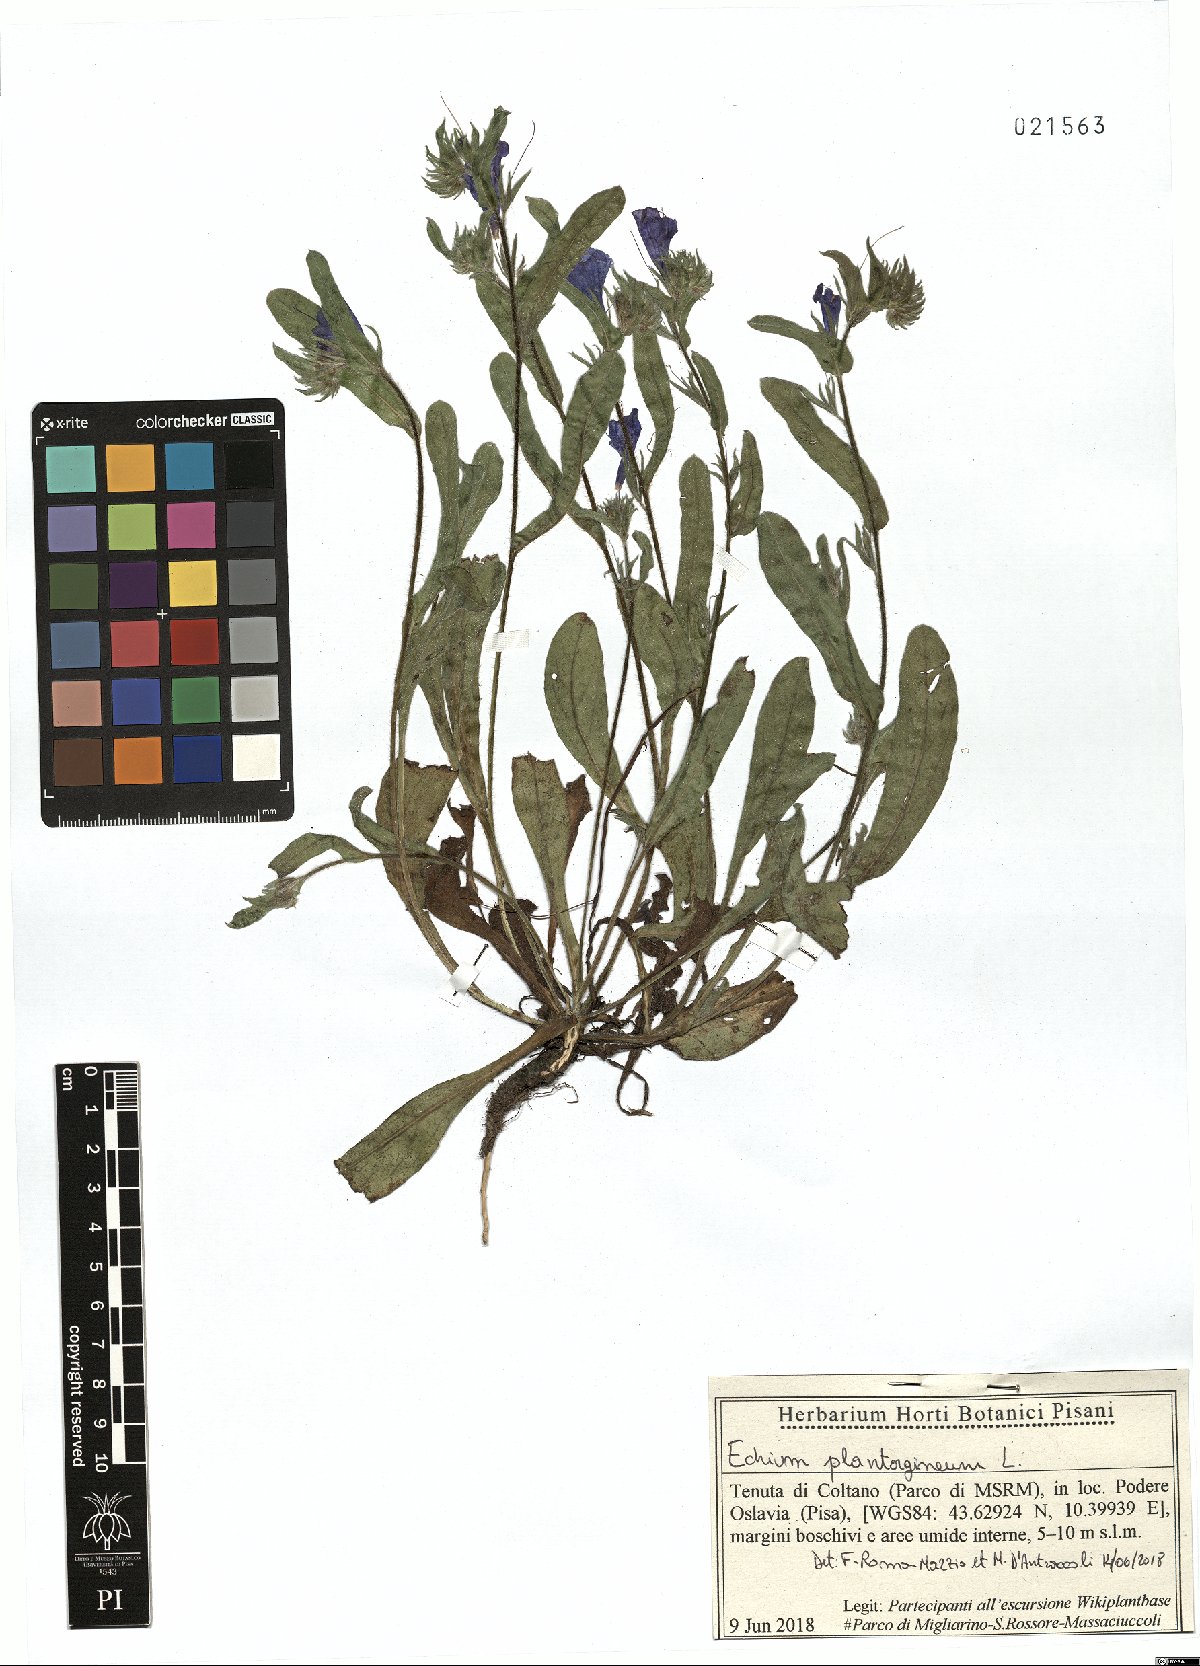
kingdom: Plantae
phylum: Tracheophyta
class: Magnoliopsida
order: Boraginales
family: Boraginaceae
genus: Echium
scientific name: Echium plantagineum
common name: Purple viper's-bugloss
